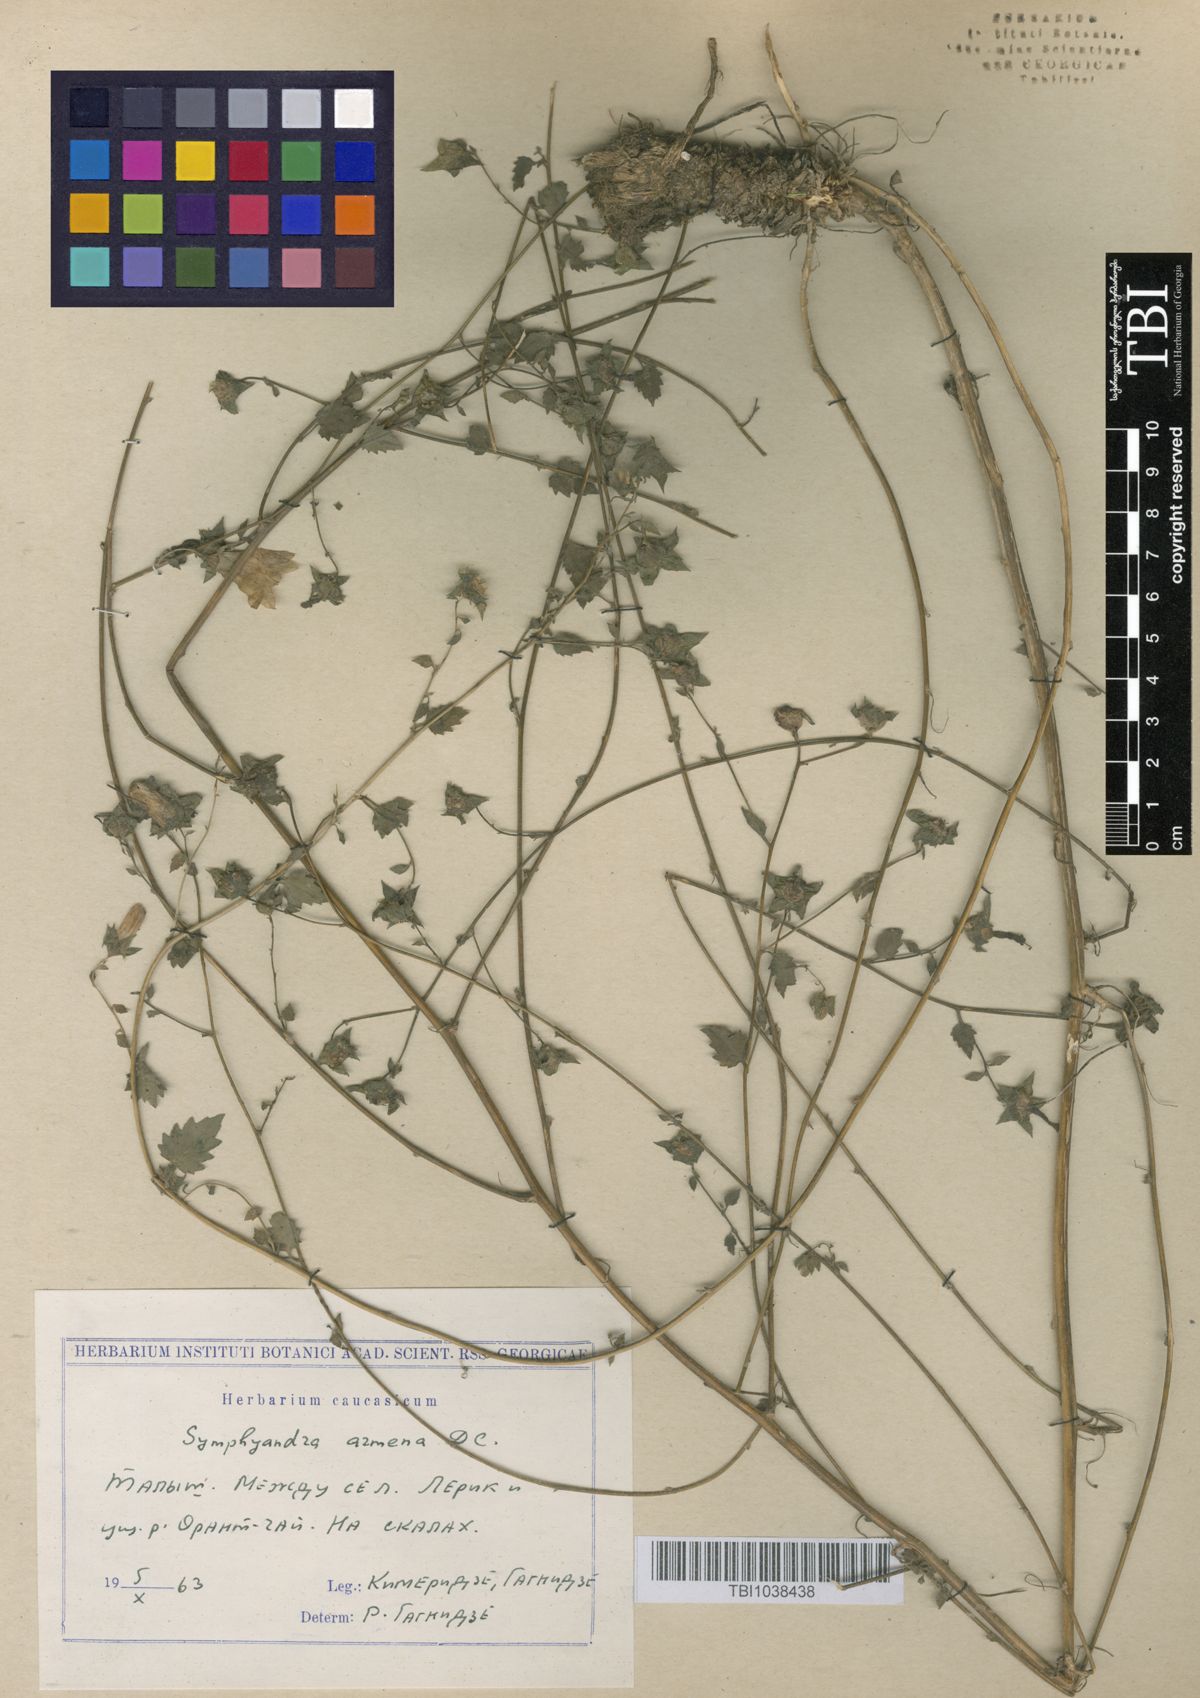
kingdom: Plantae
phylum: Tracheophyta
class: Magnoliopsida
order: Asterales
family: Campanulaceae
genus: Campanula
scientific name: Campanula armena
